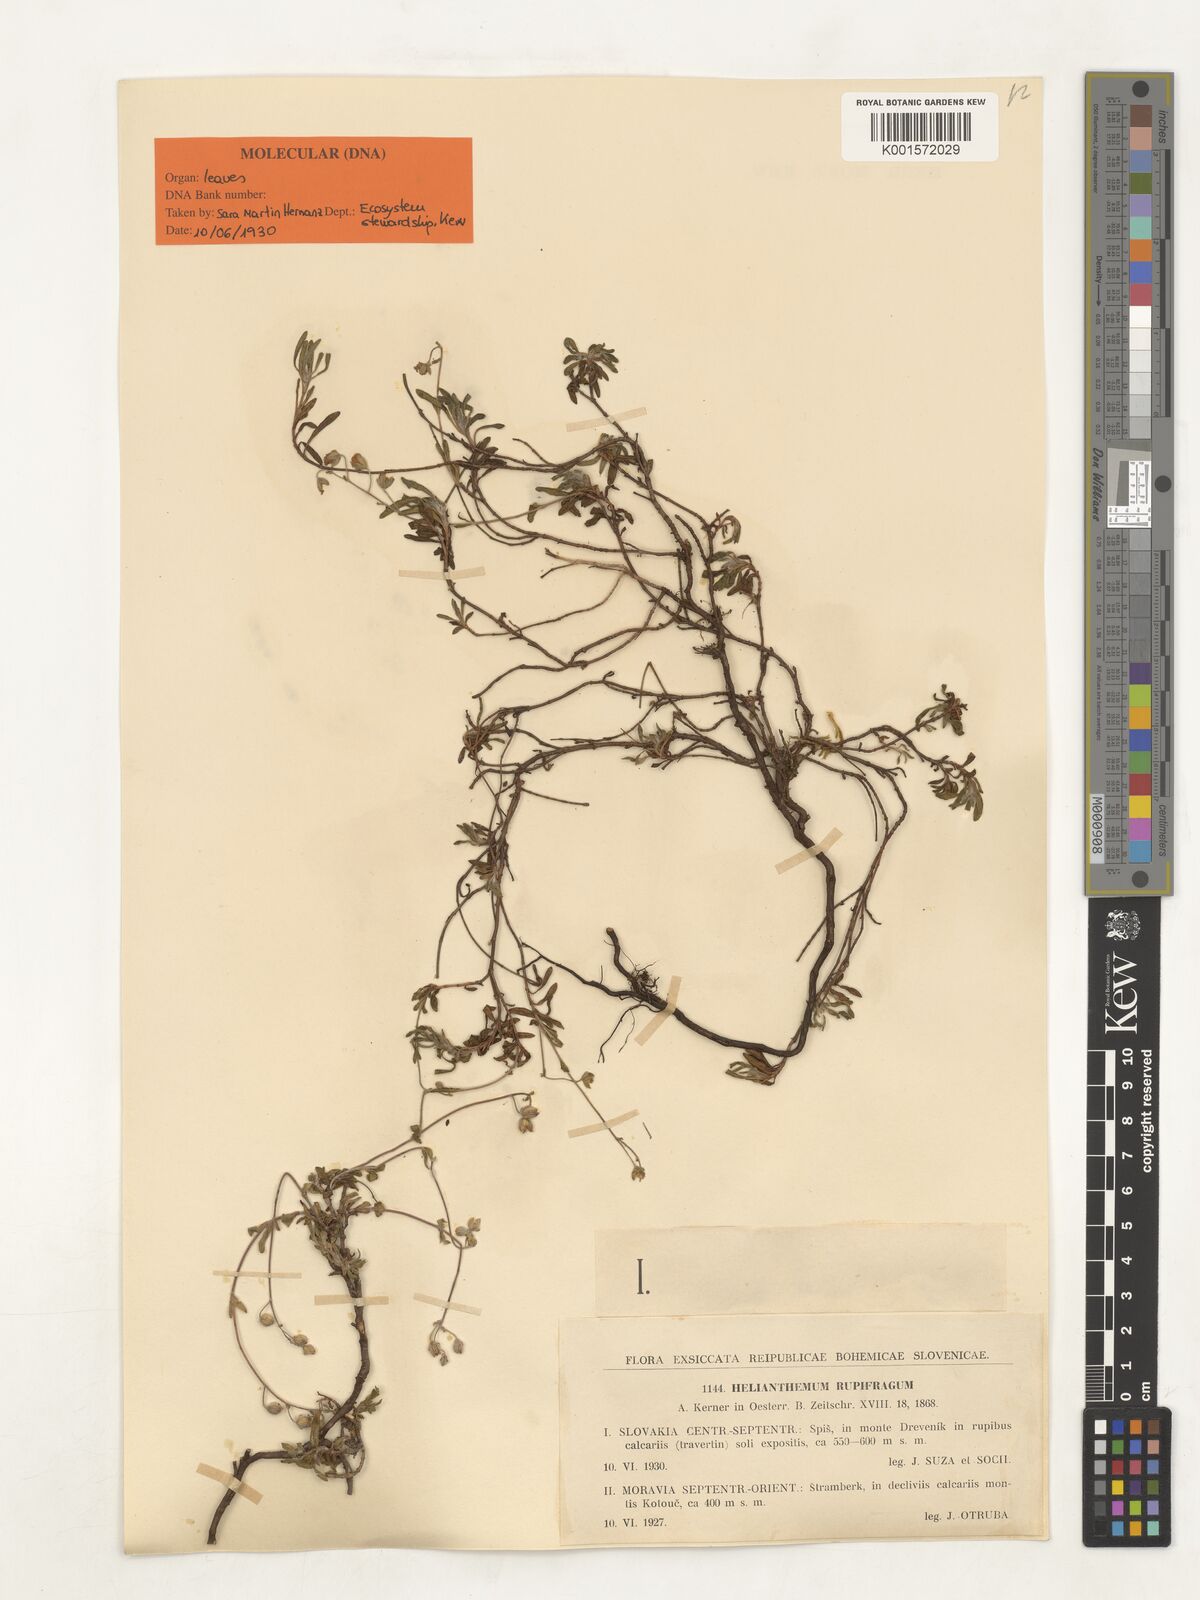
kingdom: Plantae
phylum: Tracheophyta
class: Magnoliopsida
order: Malvales
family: Cistaceae
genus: Helianthemum
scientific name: Helianthemum rupifragum
